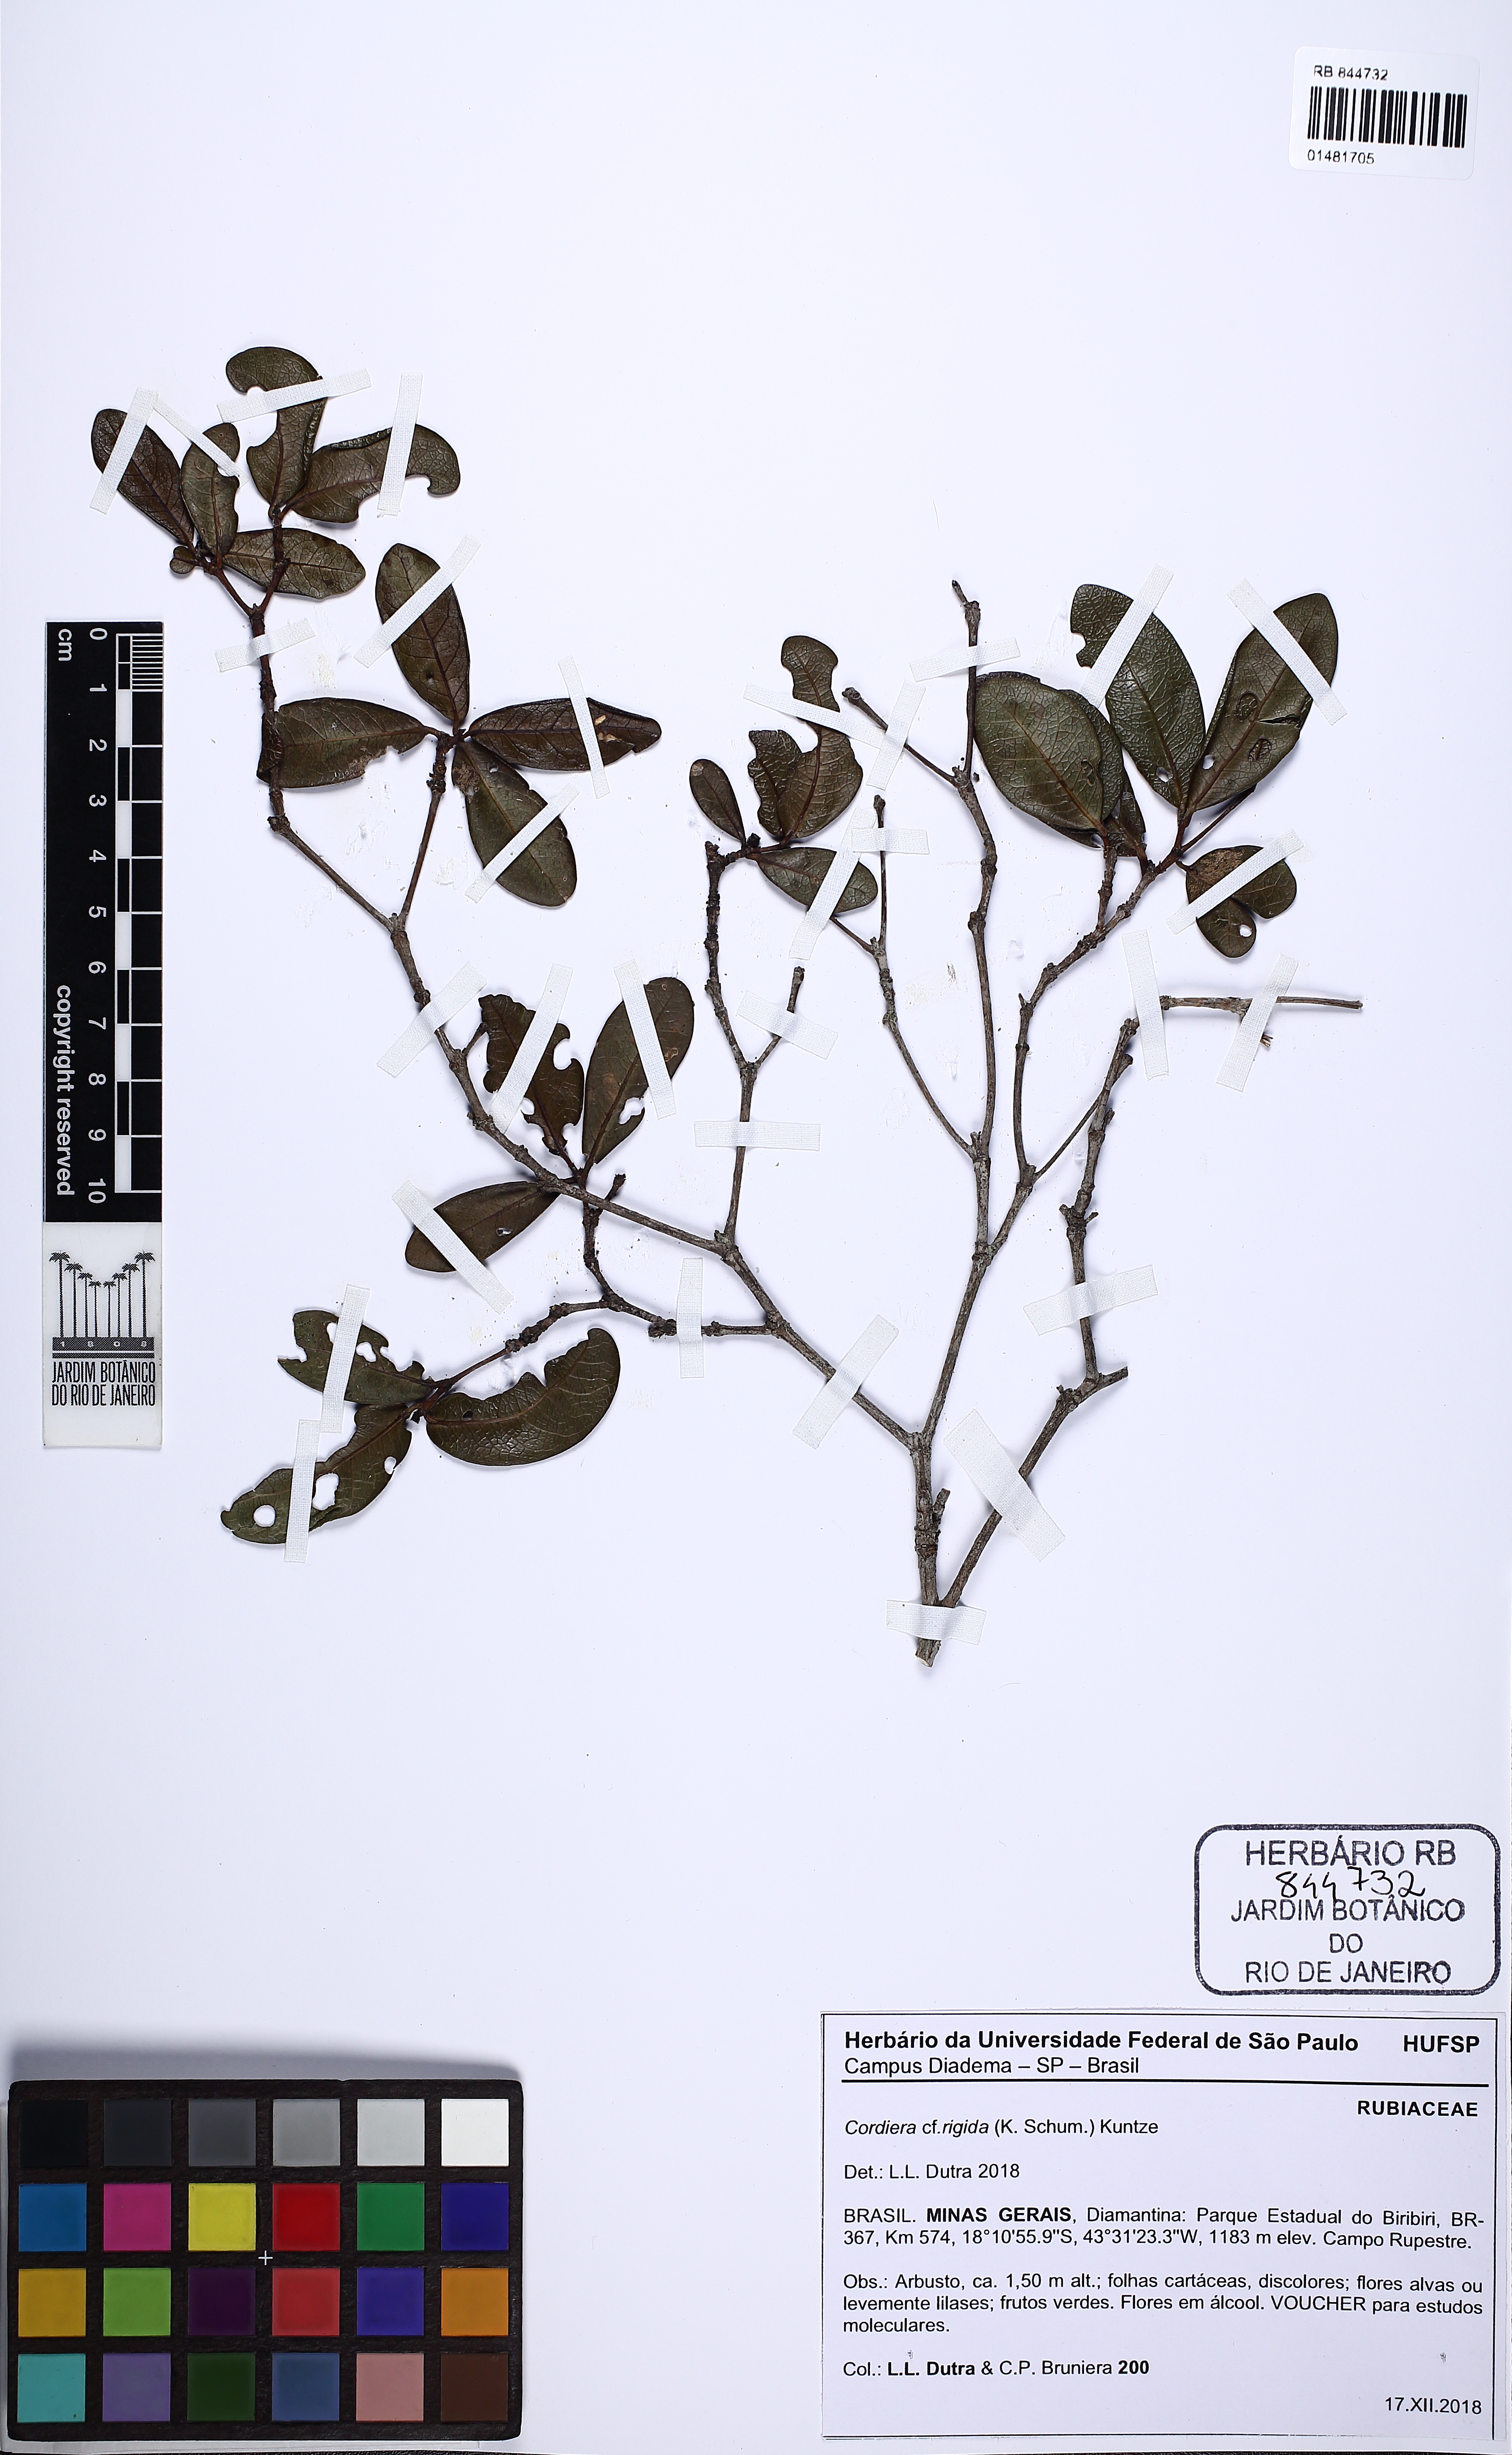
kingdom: Plantae
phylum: Tracheophyta
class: Magnoliopsida
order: Gentianales
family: Rubiaceae
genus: Cordiera
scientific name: Cordiera rigida
